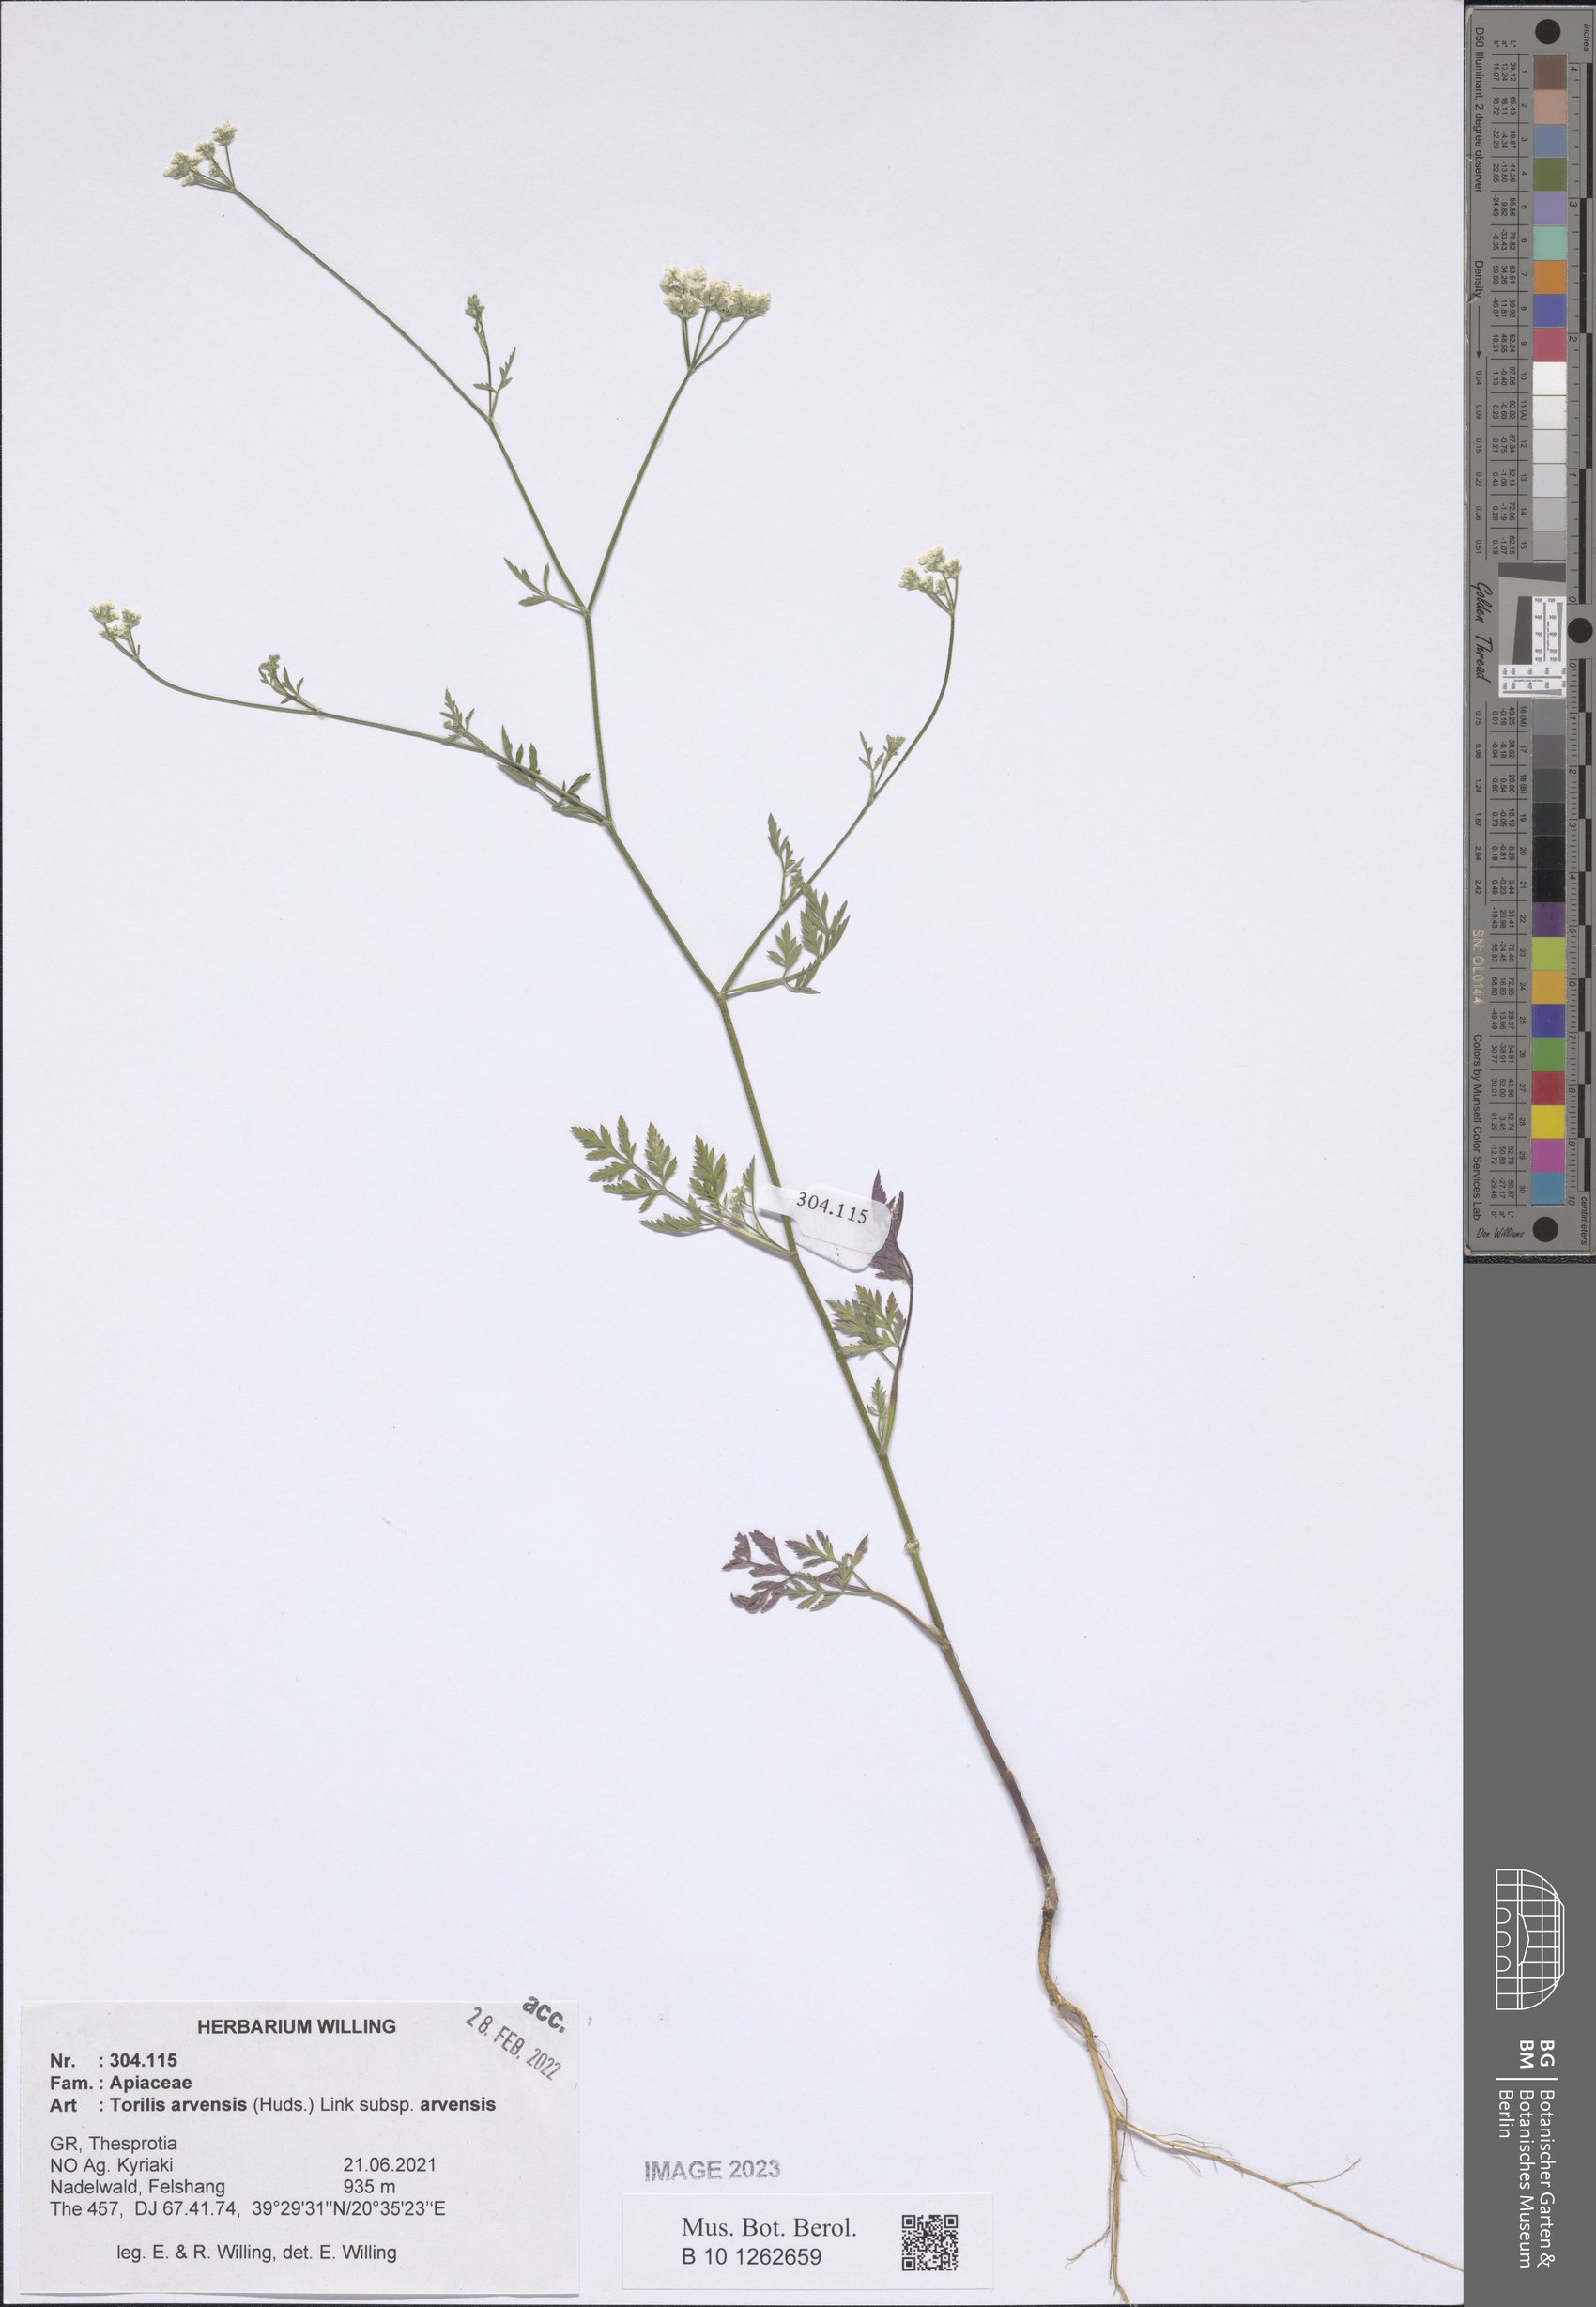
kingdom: Plantae
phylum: Tracheophyta
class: Magnoliopsida
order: Apiales
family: Apiaceae
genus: Torilis
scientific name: Torilis arvensis
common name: Spreading hedge-parsley
